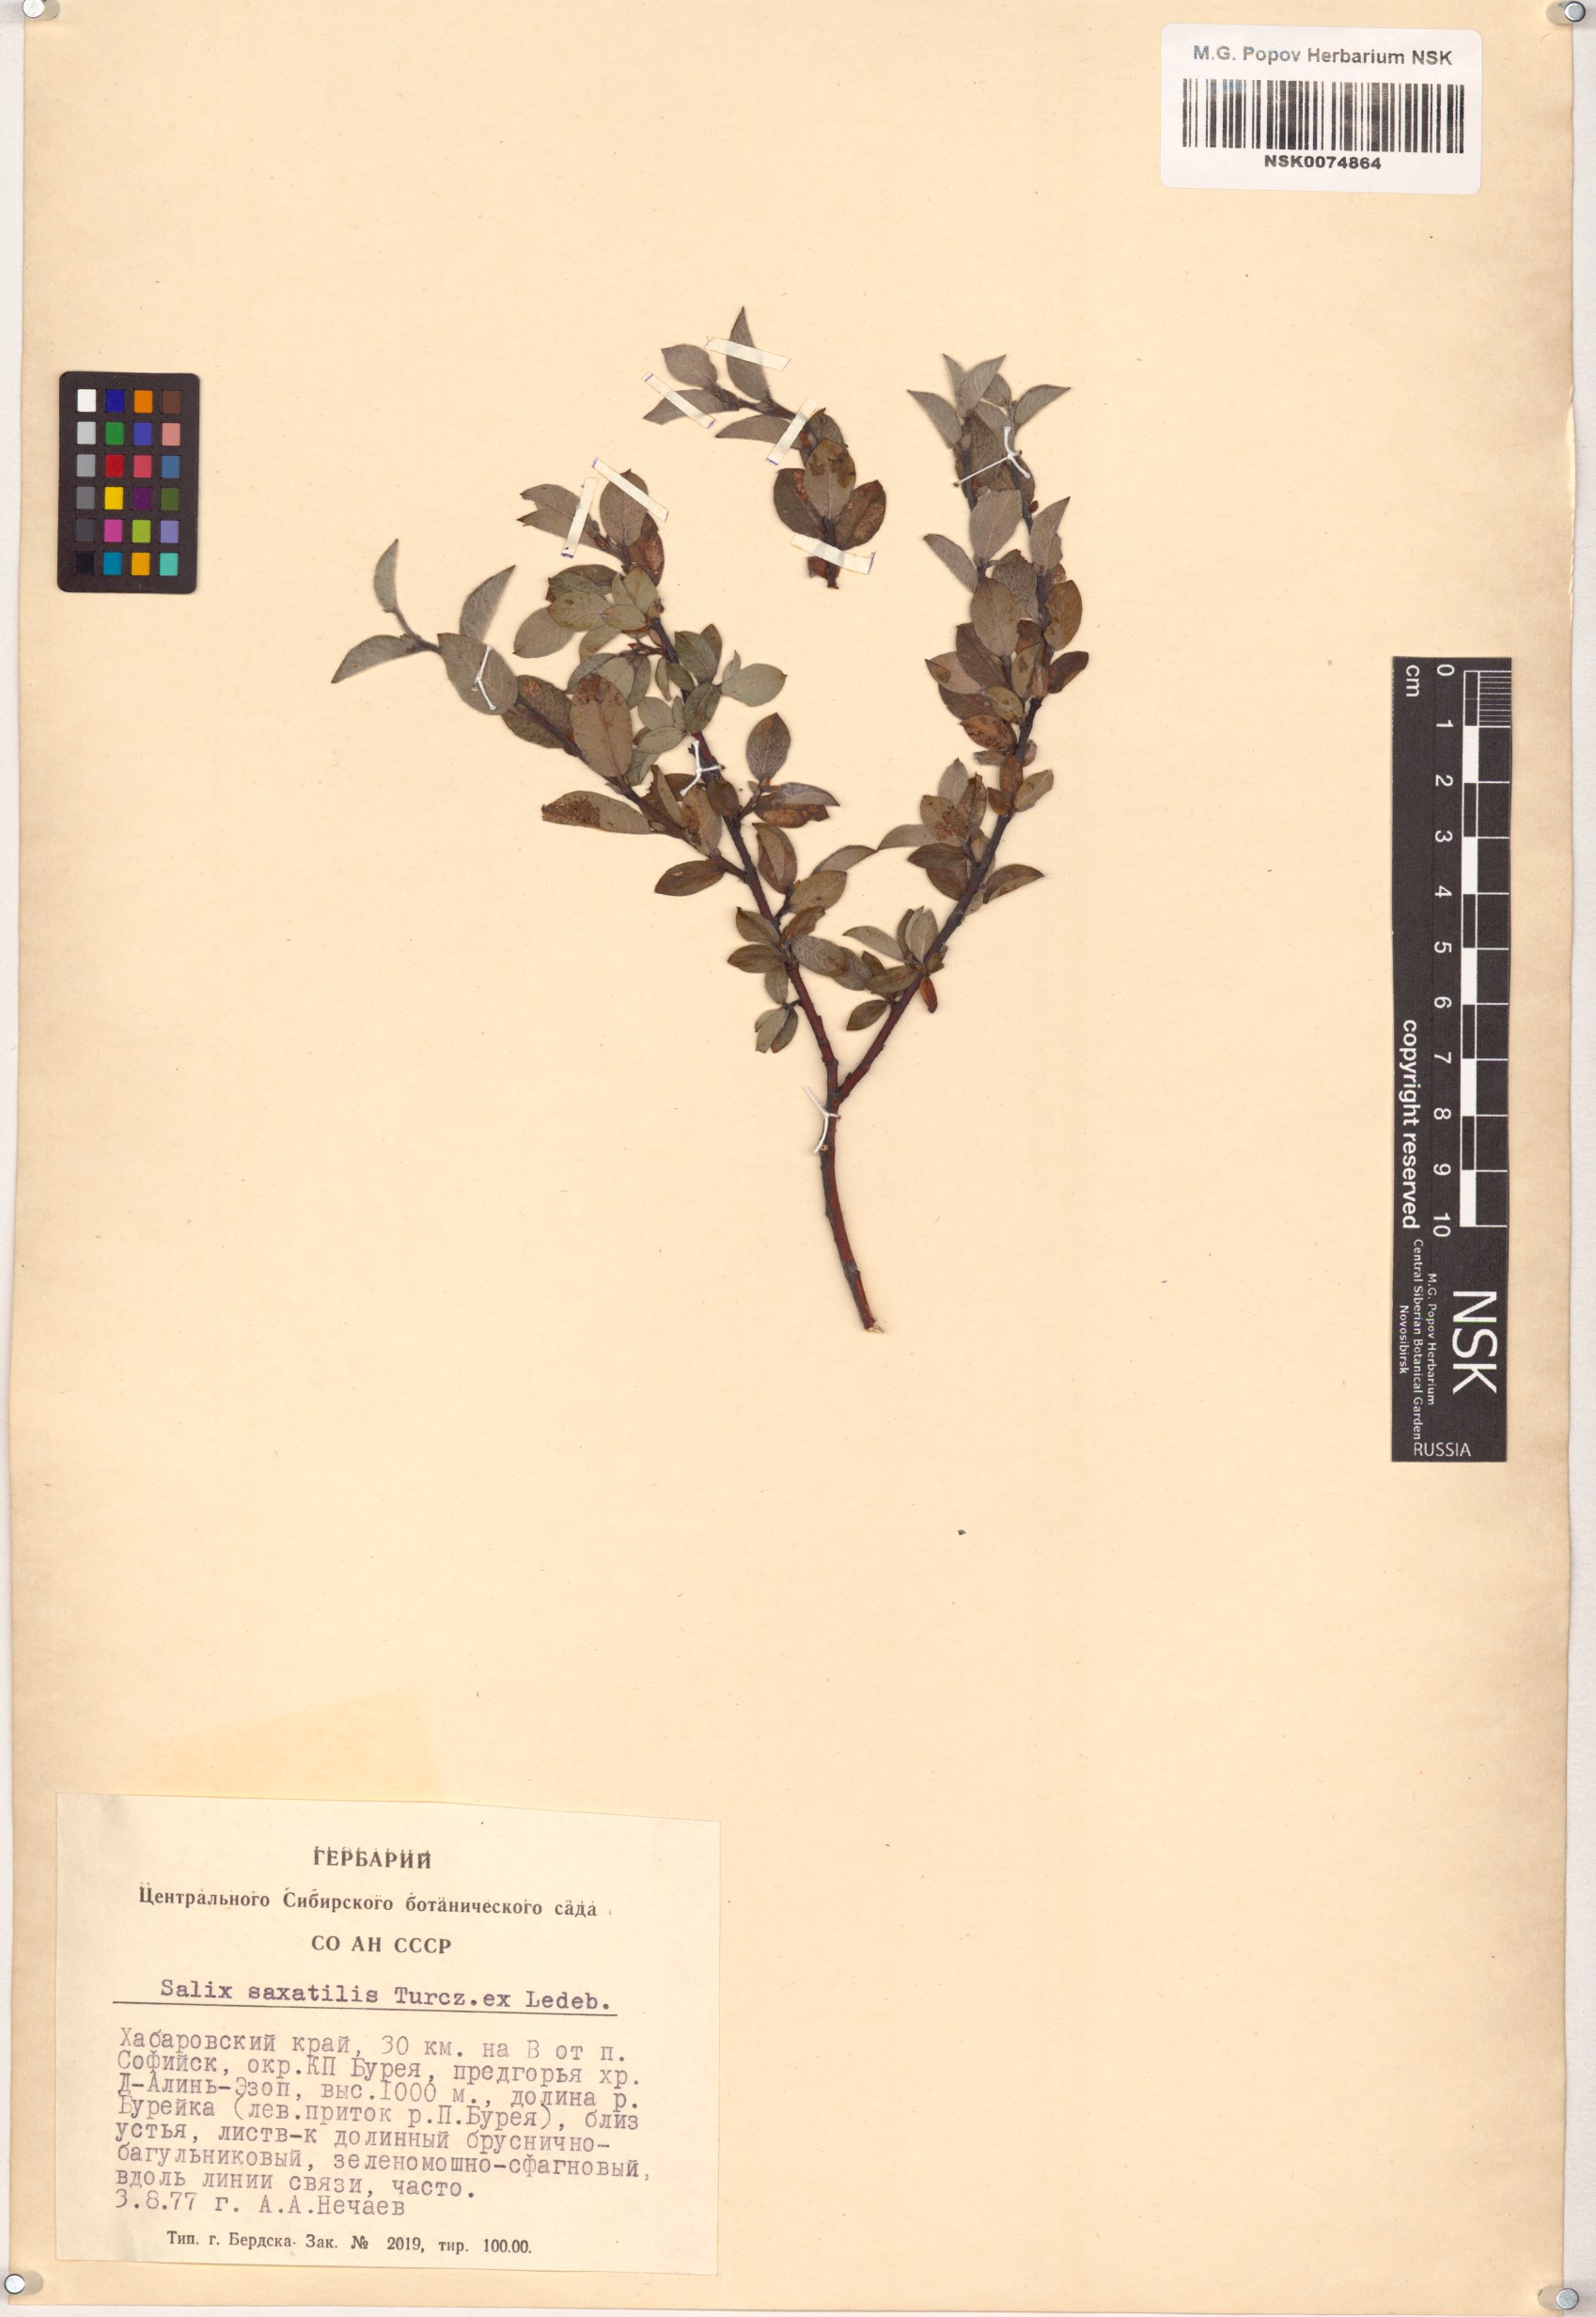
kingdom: Plantae
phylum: Tracheophyta
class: Magnoliopsida
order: Malpighiales
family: Salicaceae
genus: Salix
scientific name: Salix saxatilis
